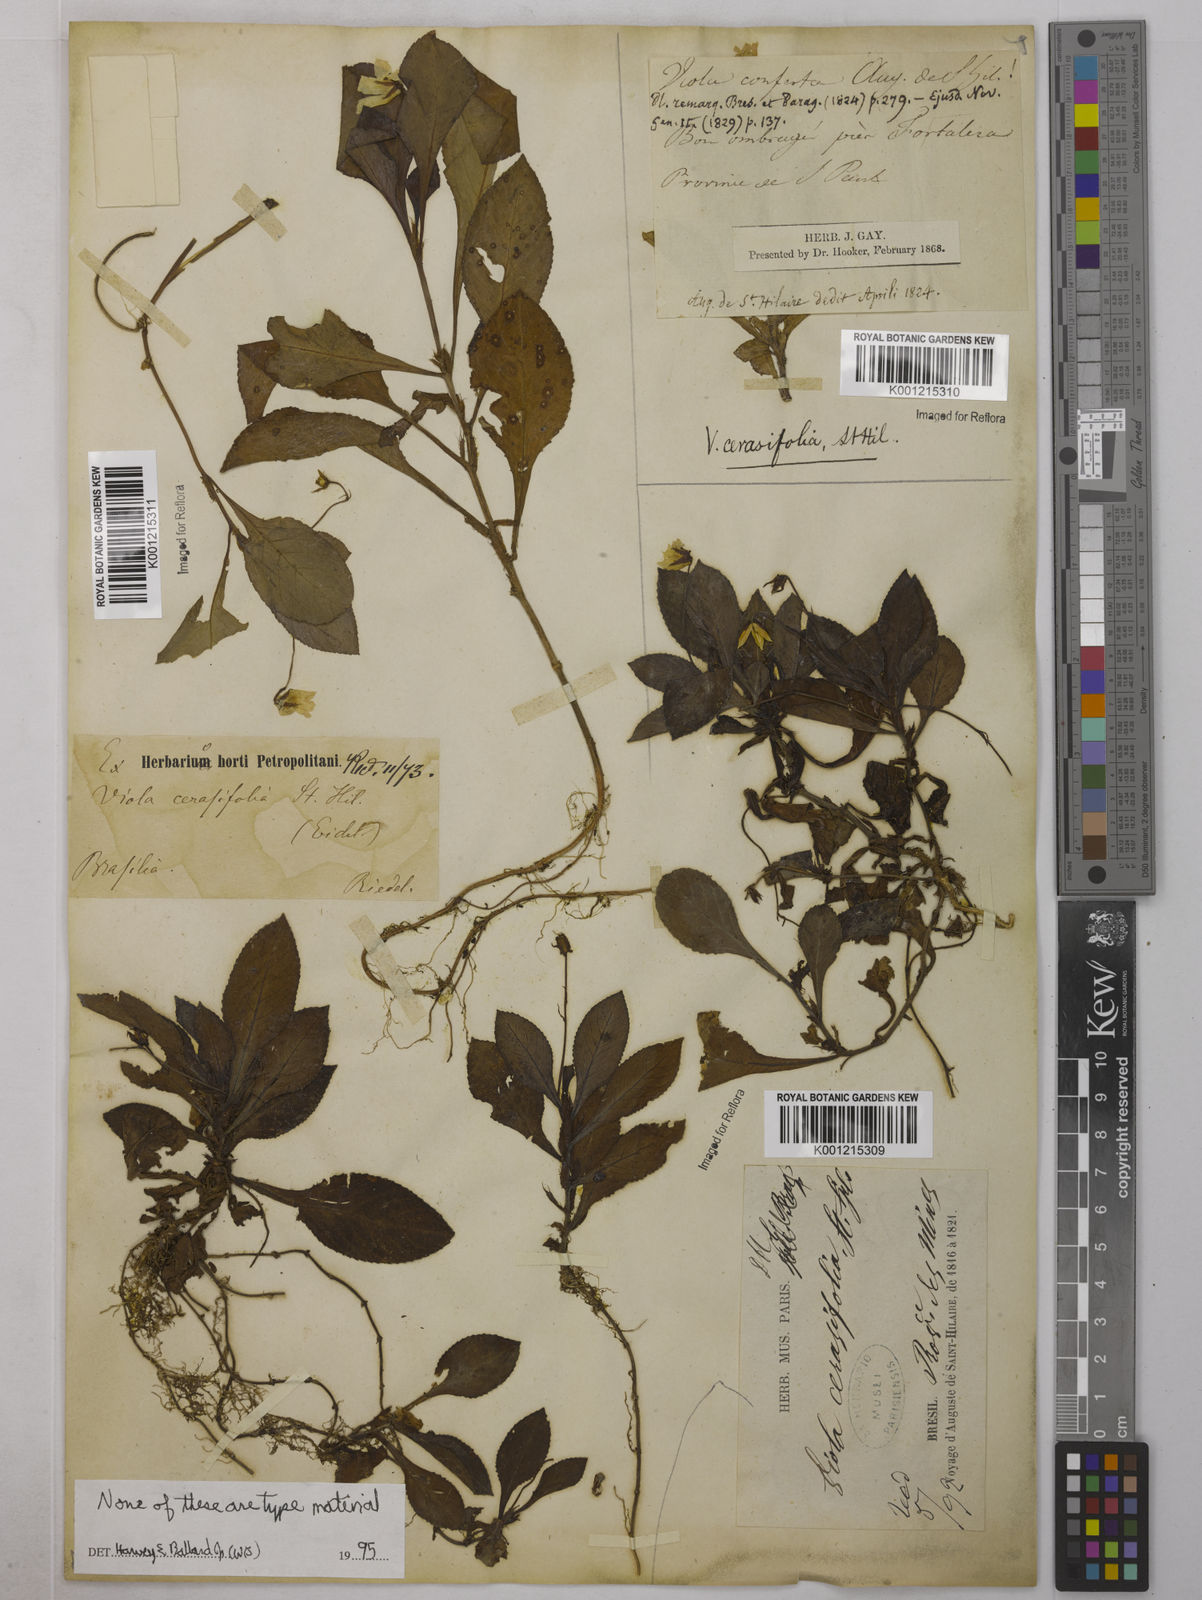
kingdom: Plantae
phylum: Tracheophyta
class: Magnoliopsida
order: Malpighiales
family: Violaceae
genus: Viola
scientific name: Viola cerasifolia
